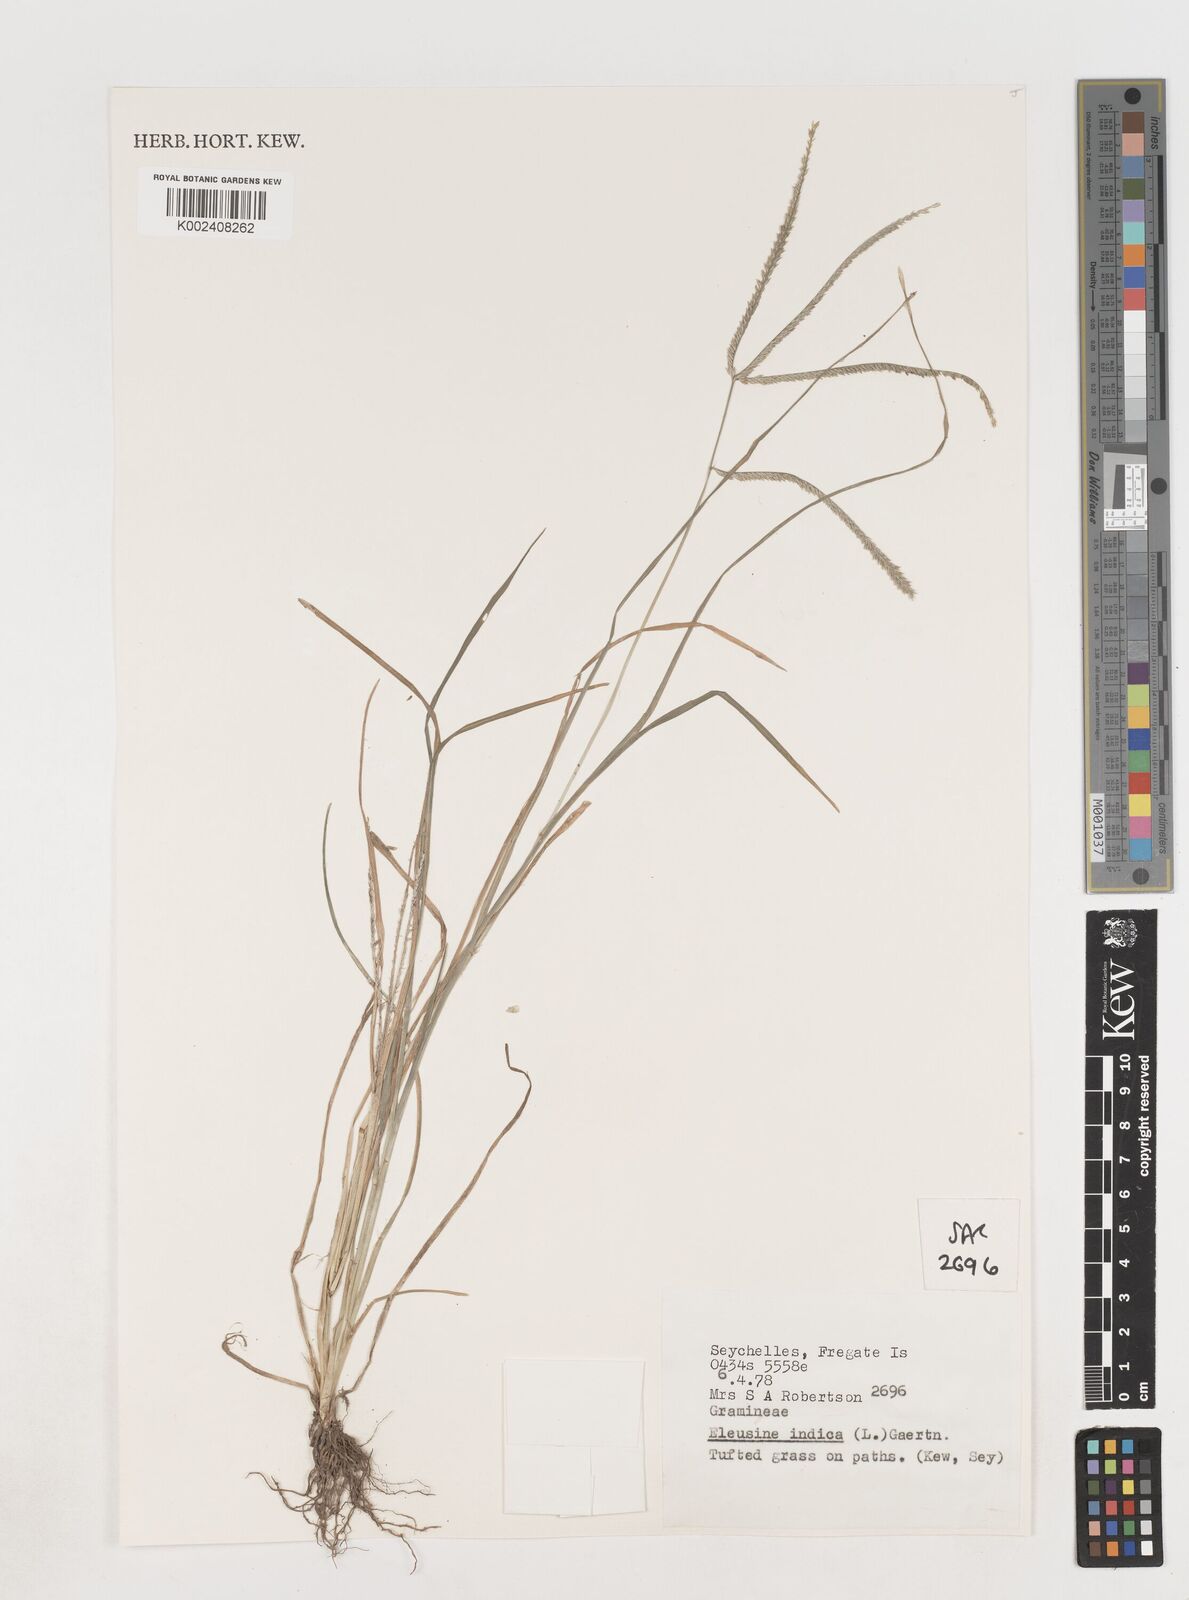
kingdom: Plantae
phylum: Tracheophyta
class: Liliopsida
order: Poales
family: Poaceae
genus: Eleusine
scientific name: Eleusine indica
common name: Yard-grass
